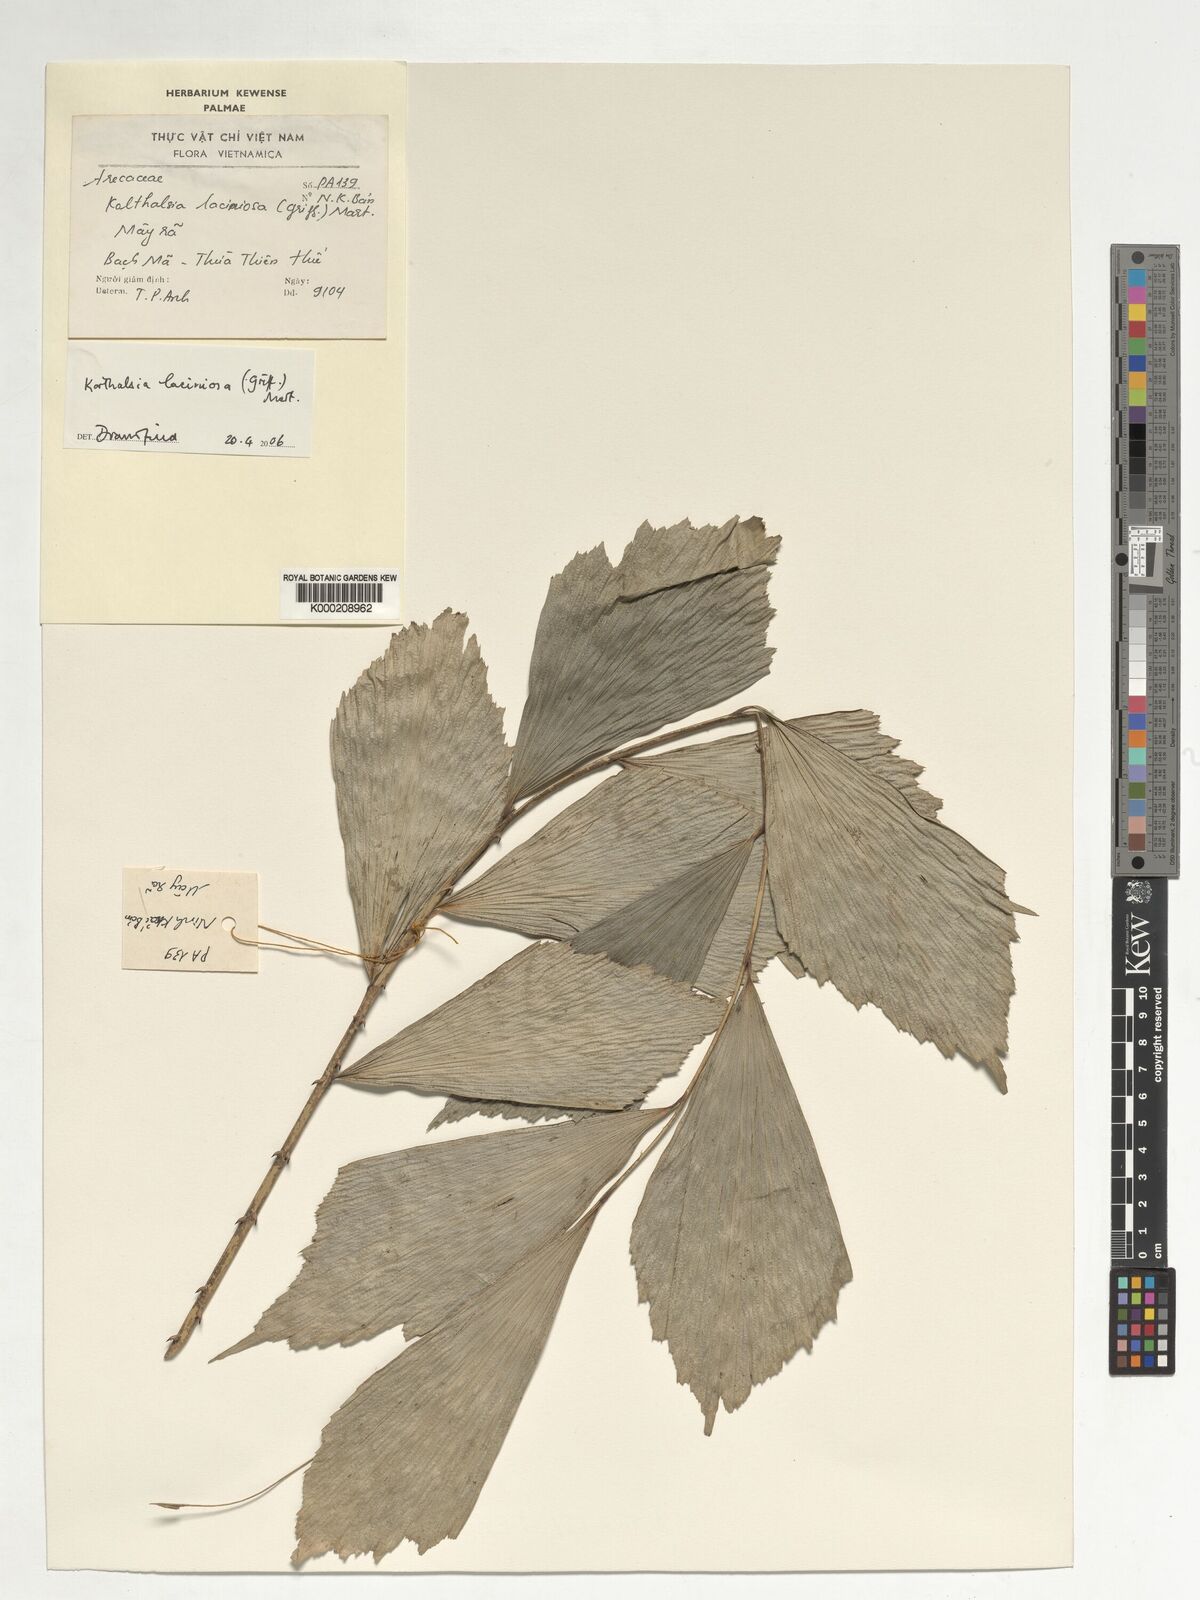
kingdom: Plantae
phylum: Tracheophyta
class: Liliopsida
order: Arecales
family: Arecaceae
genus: Korthalsia
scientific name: Korthalsia laciniosa
